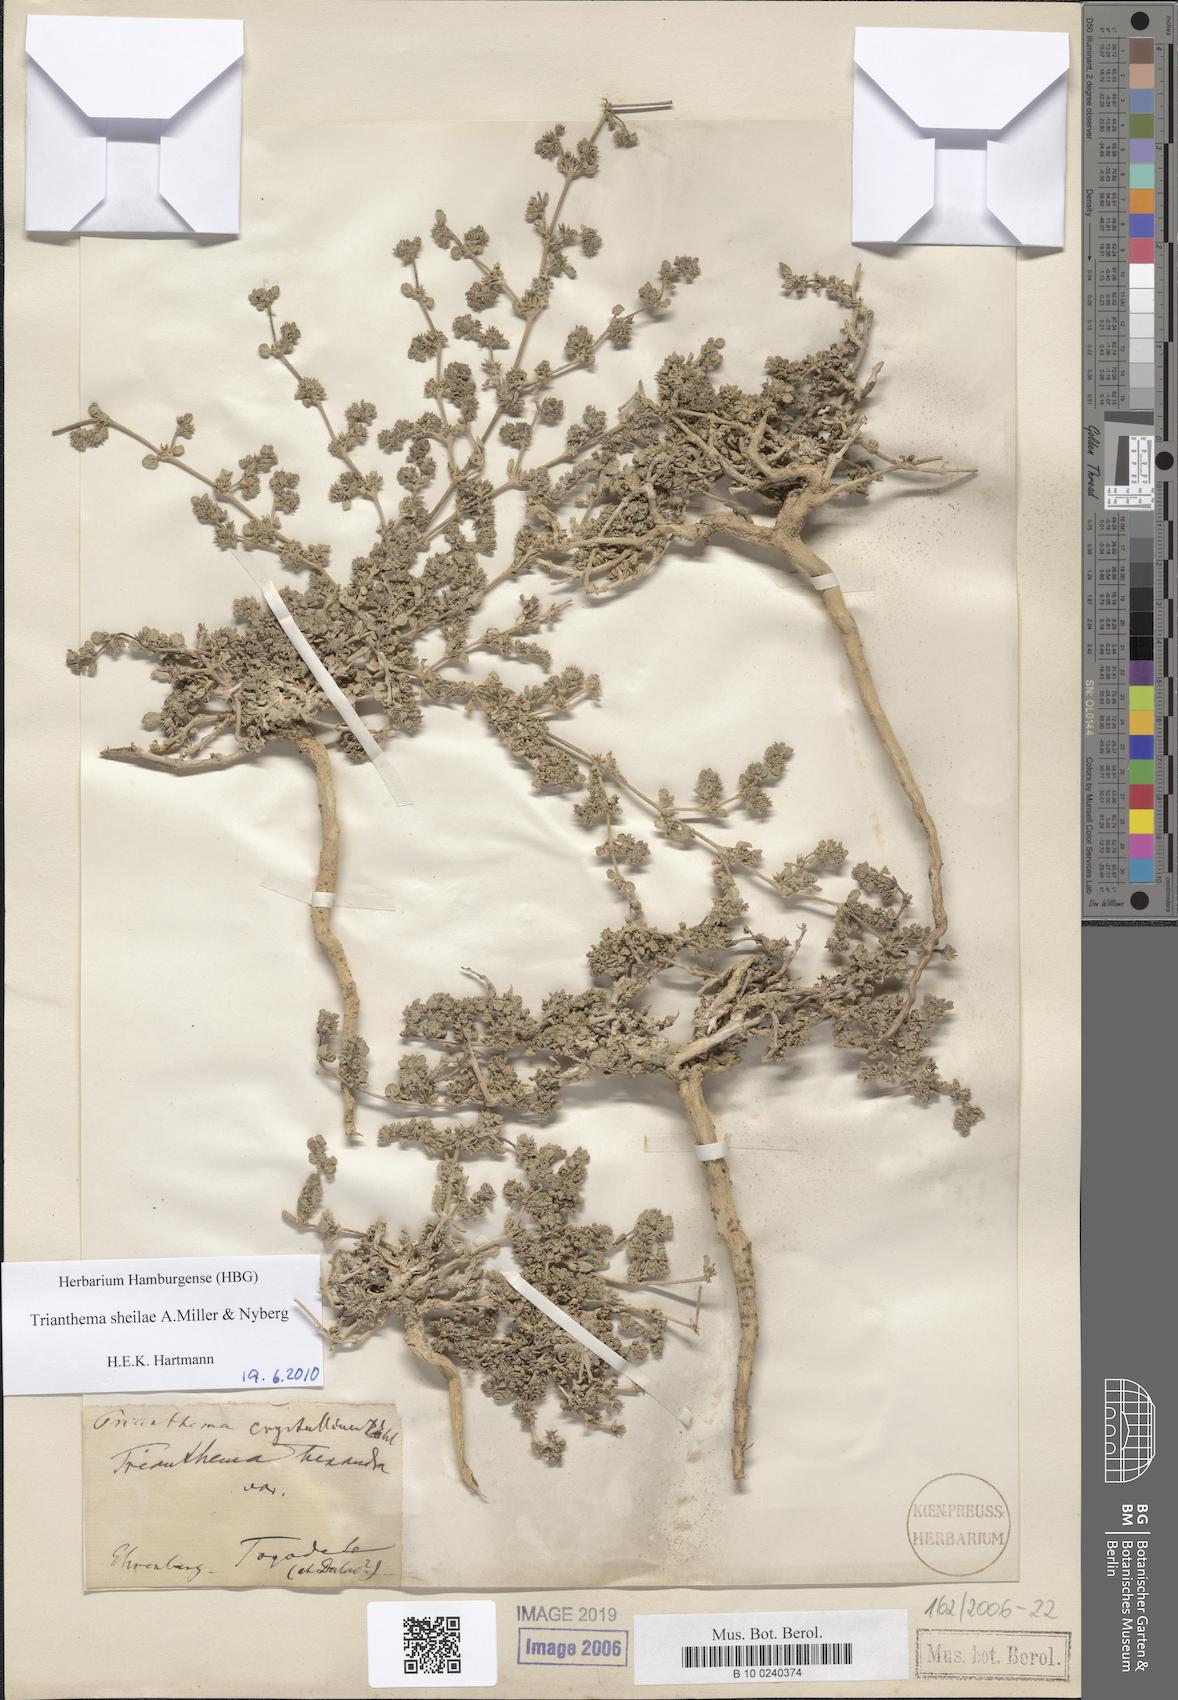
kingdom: Plantae
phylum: Tracheophyta
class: Magnoliopsida
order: Caryophyllales
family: Aizoaceae
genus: Trianthema
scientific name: Trianthema sheilae
